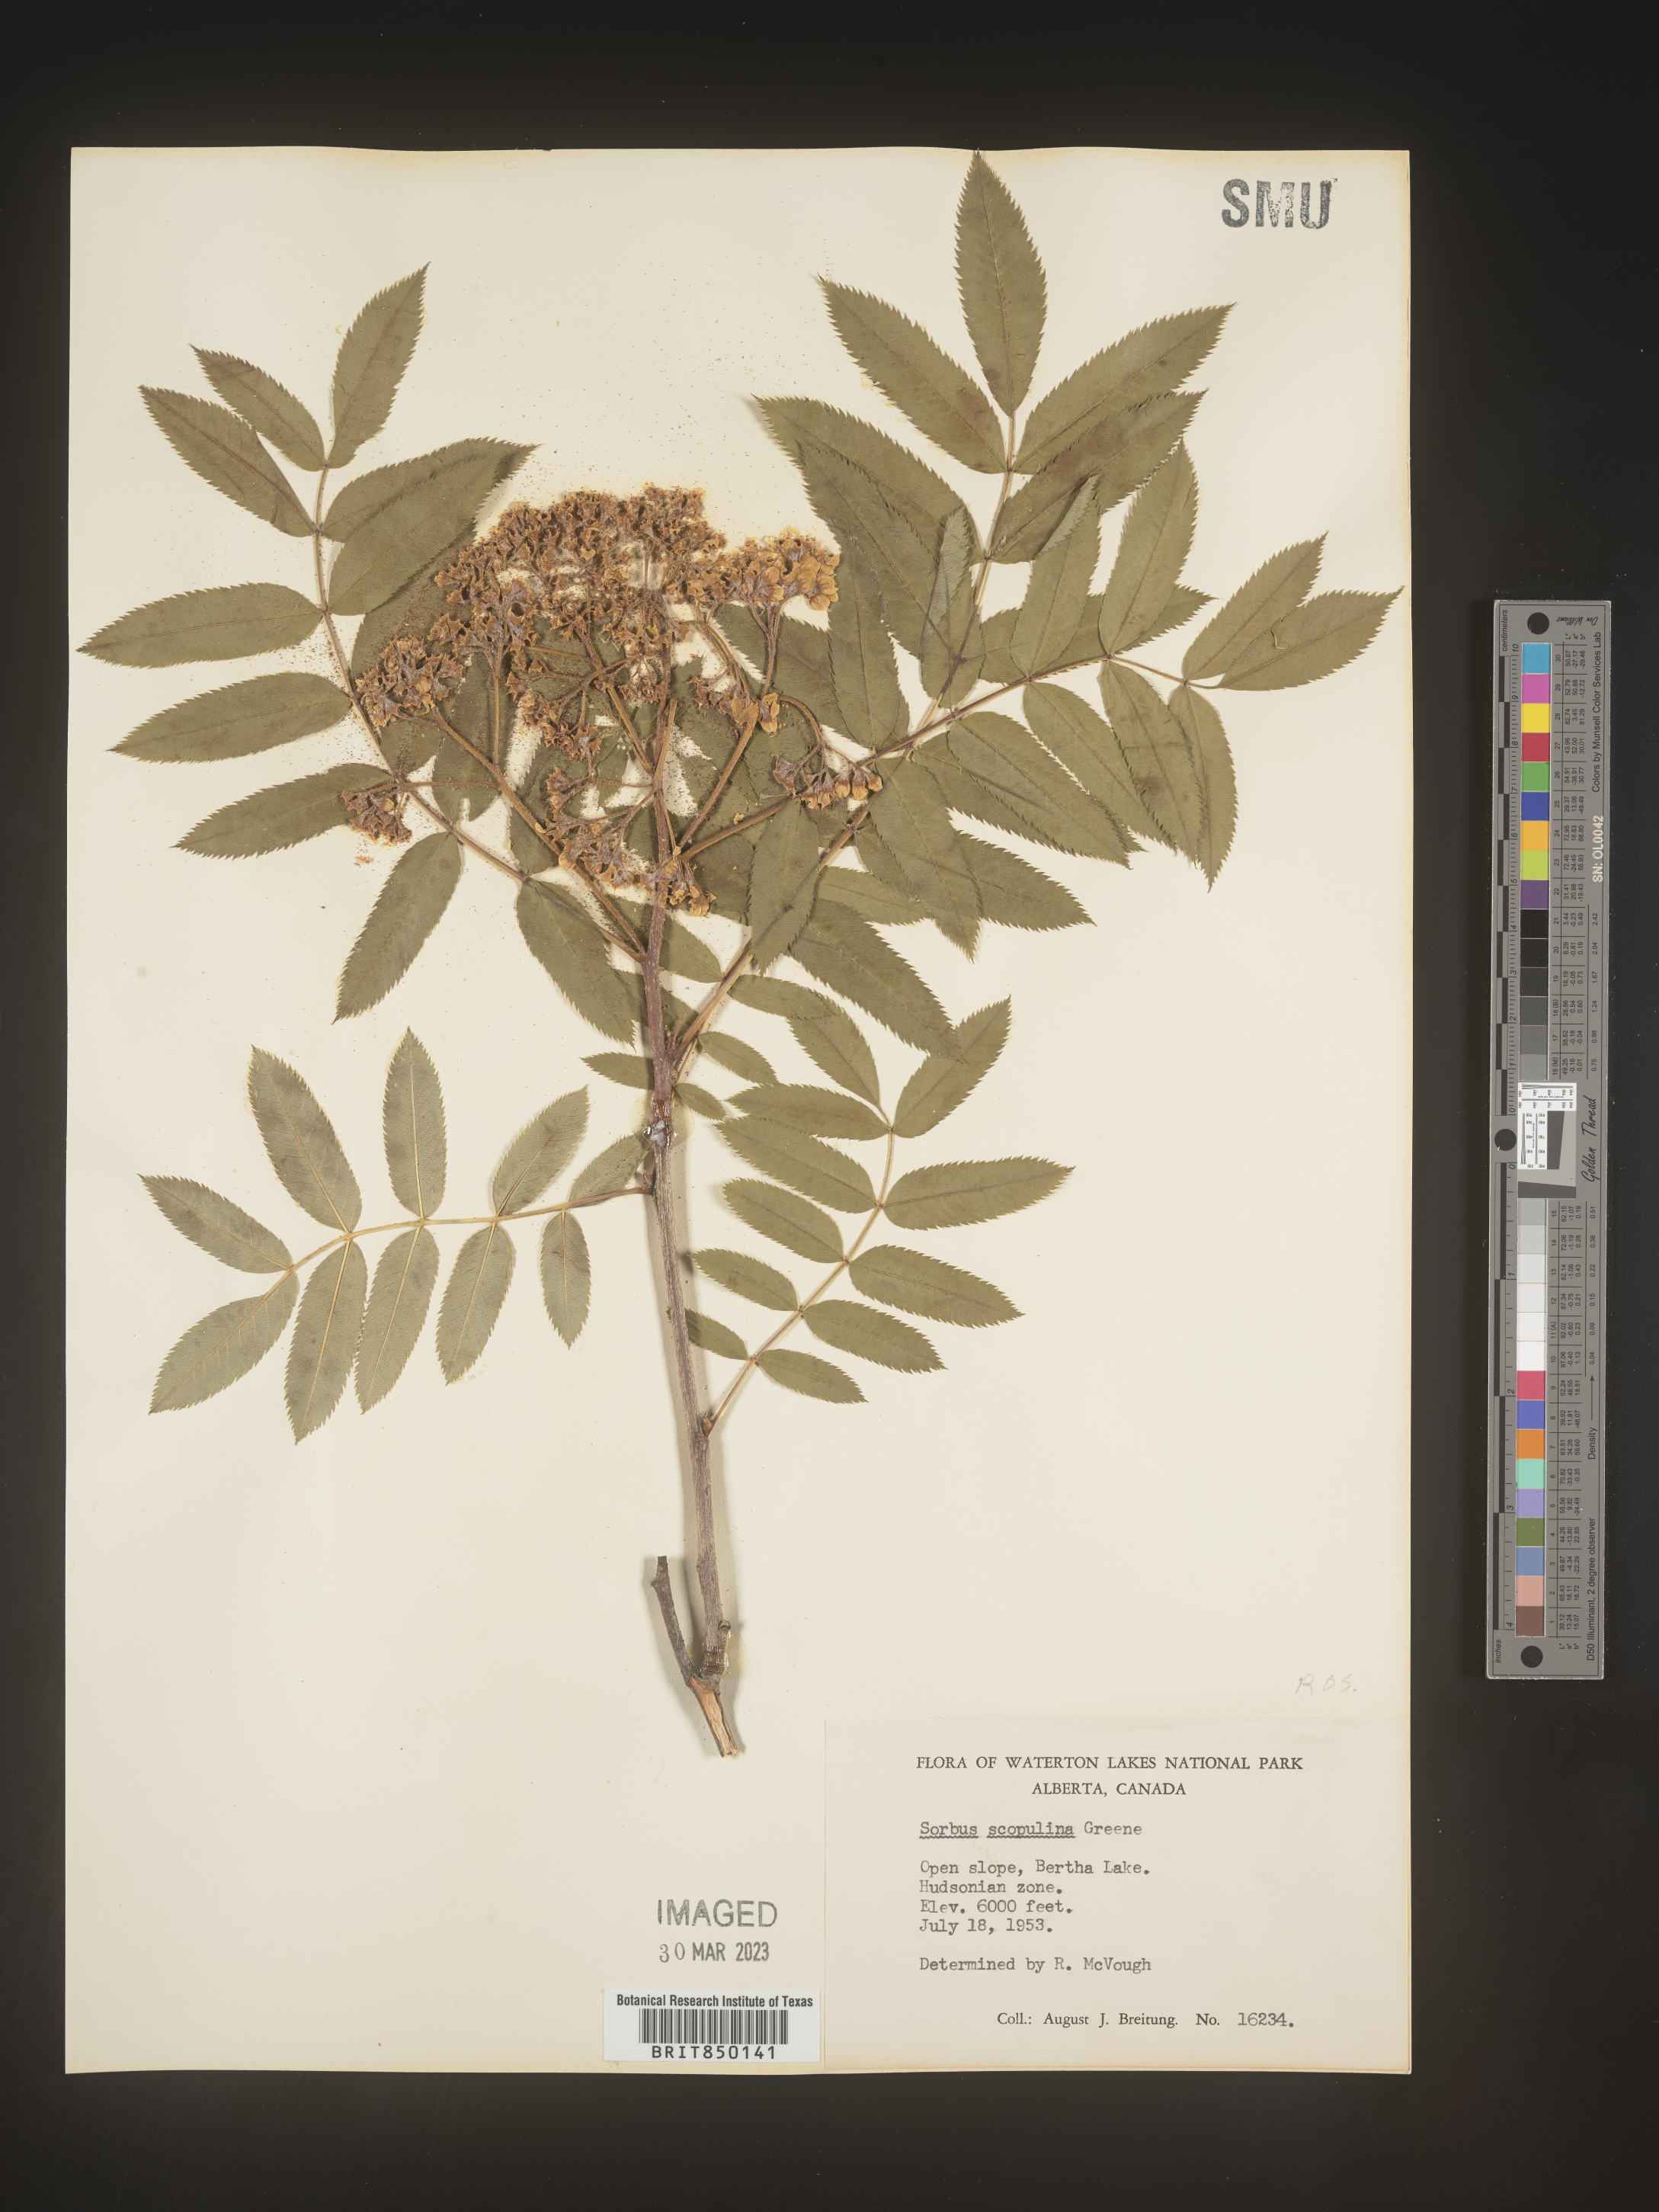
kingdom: Plantae
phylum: Tracheophyta
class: Magnoliopsida
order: Rosales
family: Rosaceae
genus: Sorbus
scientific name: Sorbus scopulina
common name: Greene's mountain-ash
